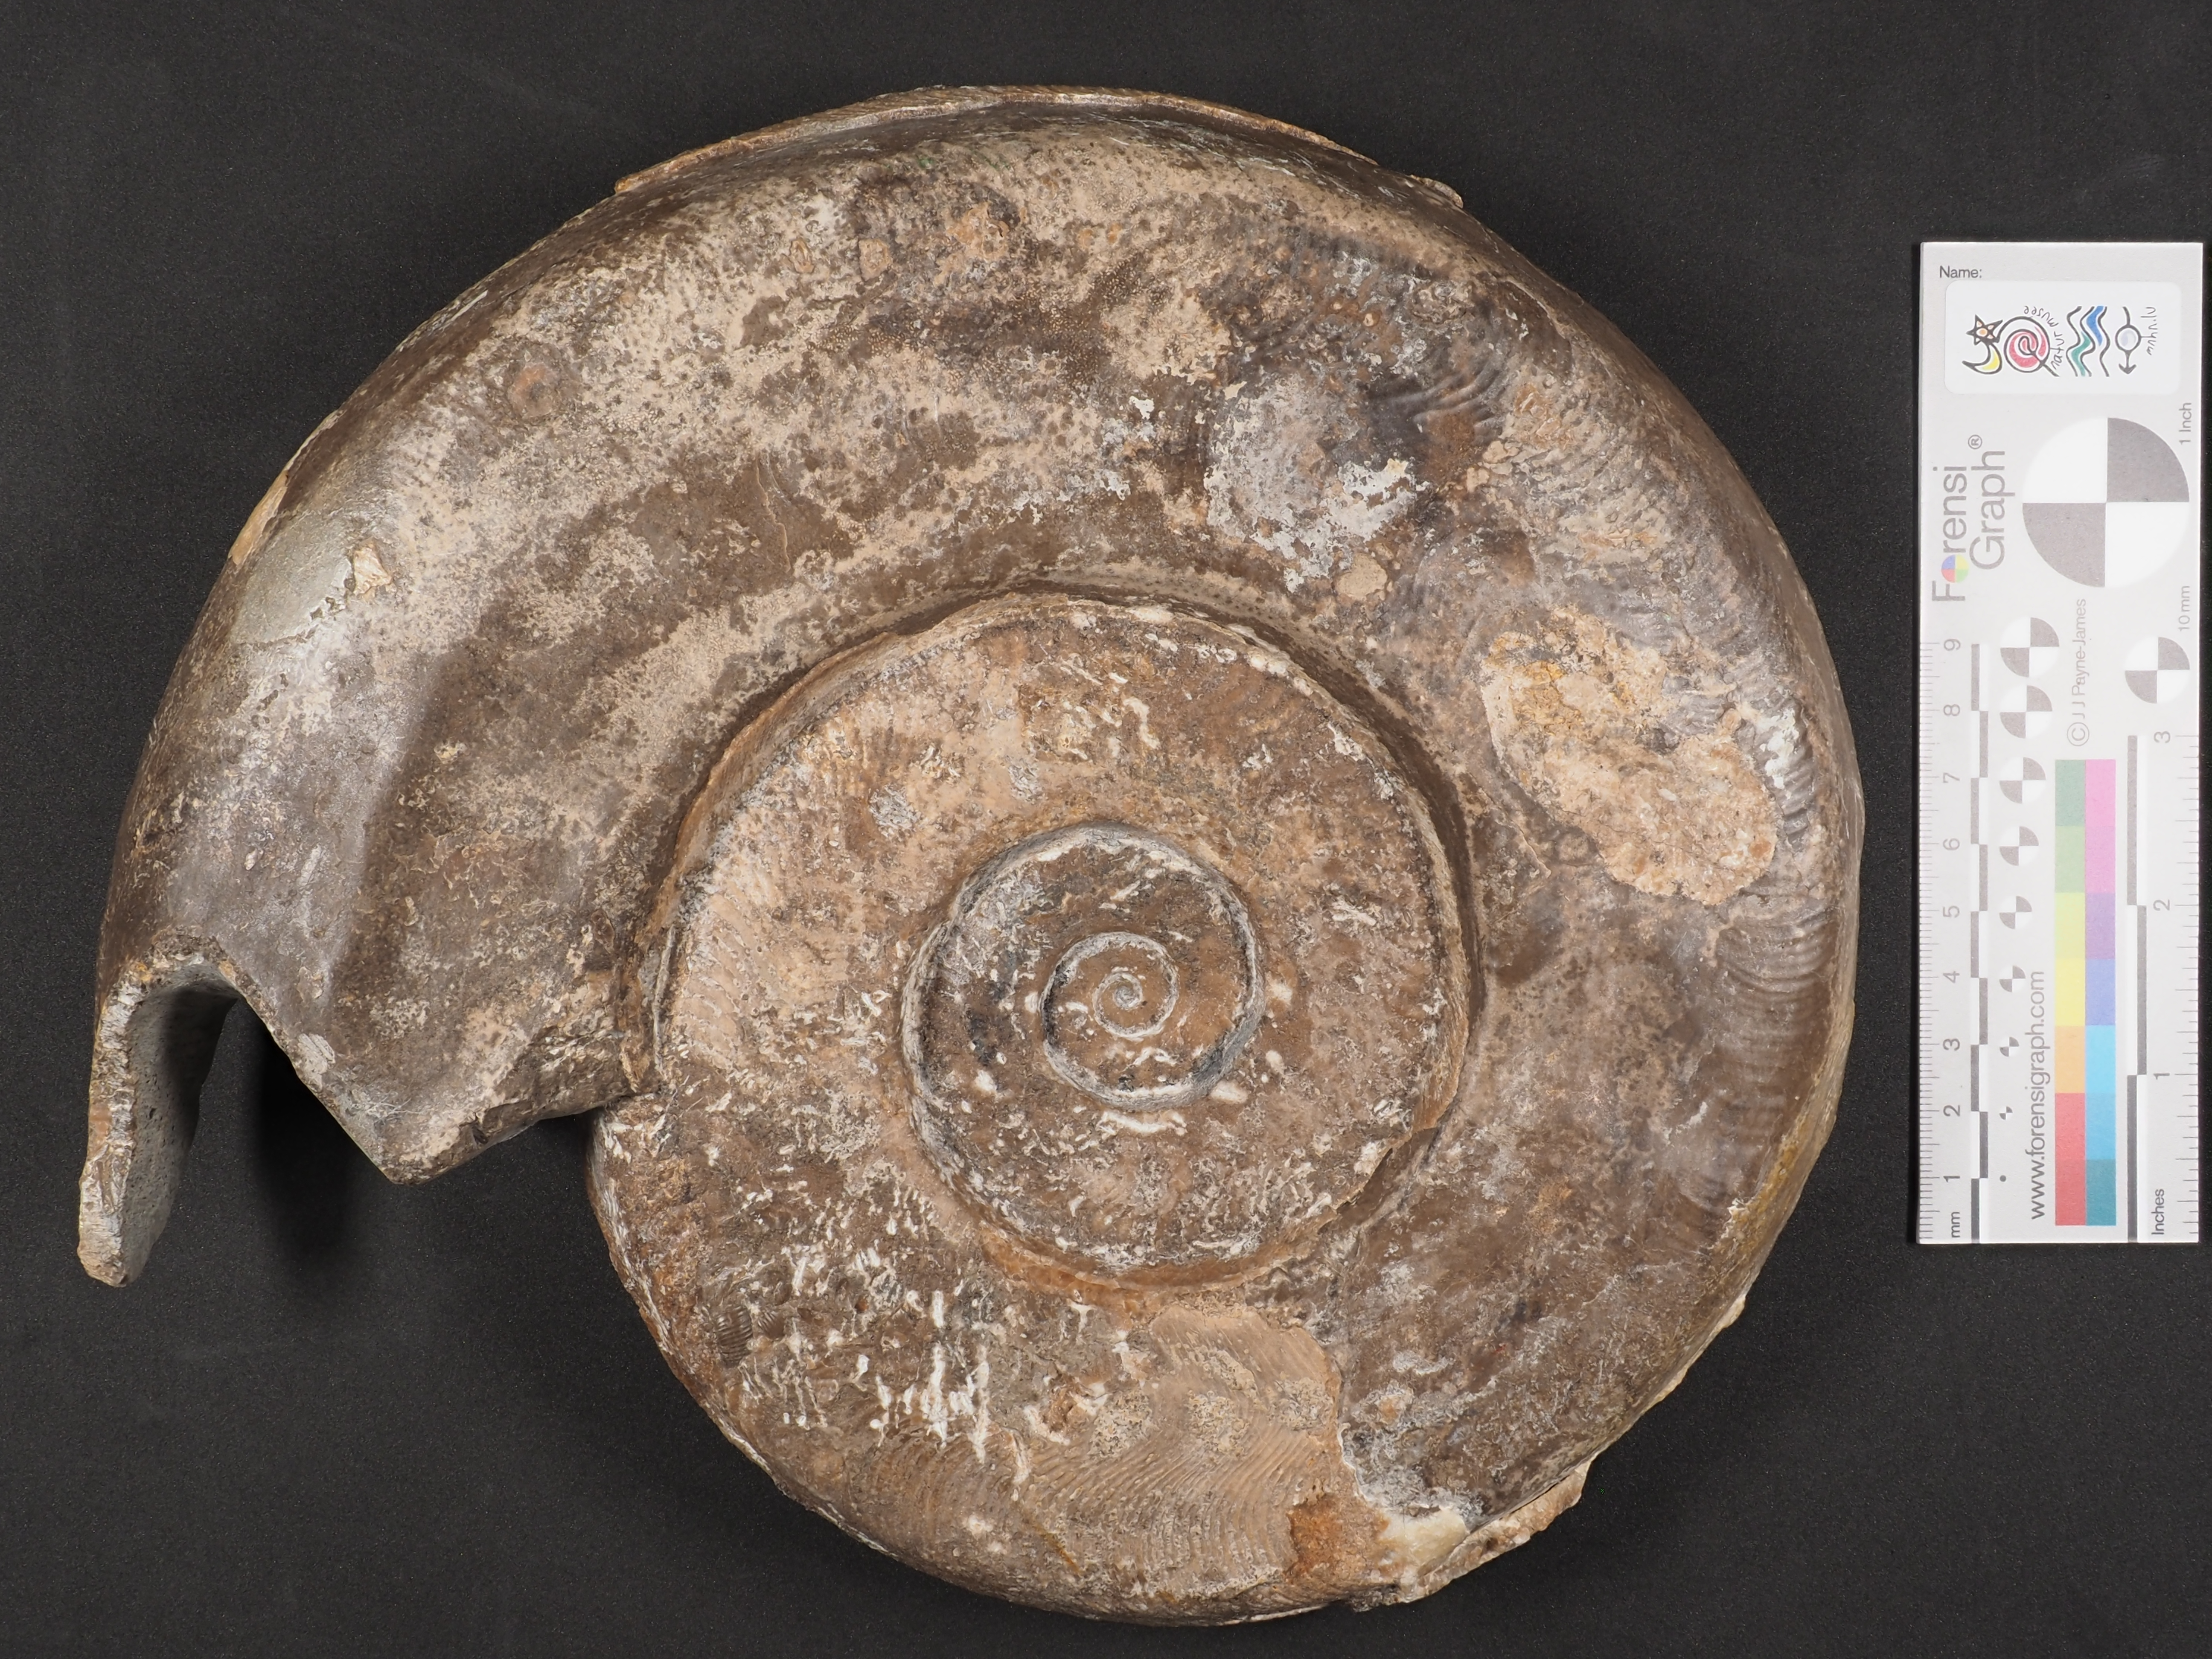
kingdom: Animalia
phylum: Mollusca
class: Cephalopoda
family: Hildoceratidae
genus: Hildaites
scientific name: Hildaites
